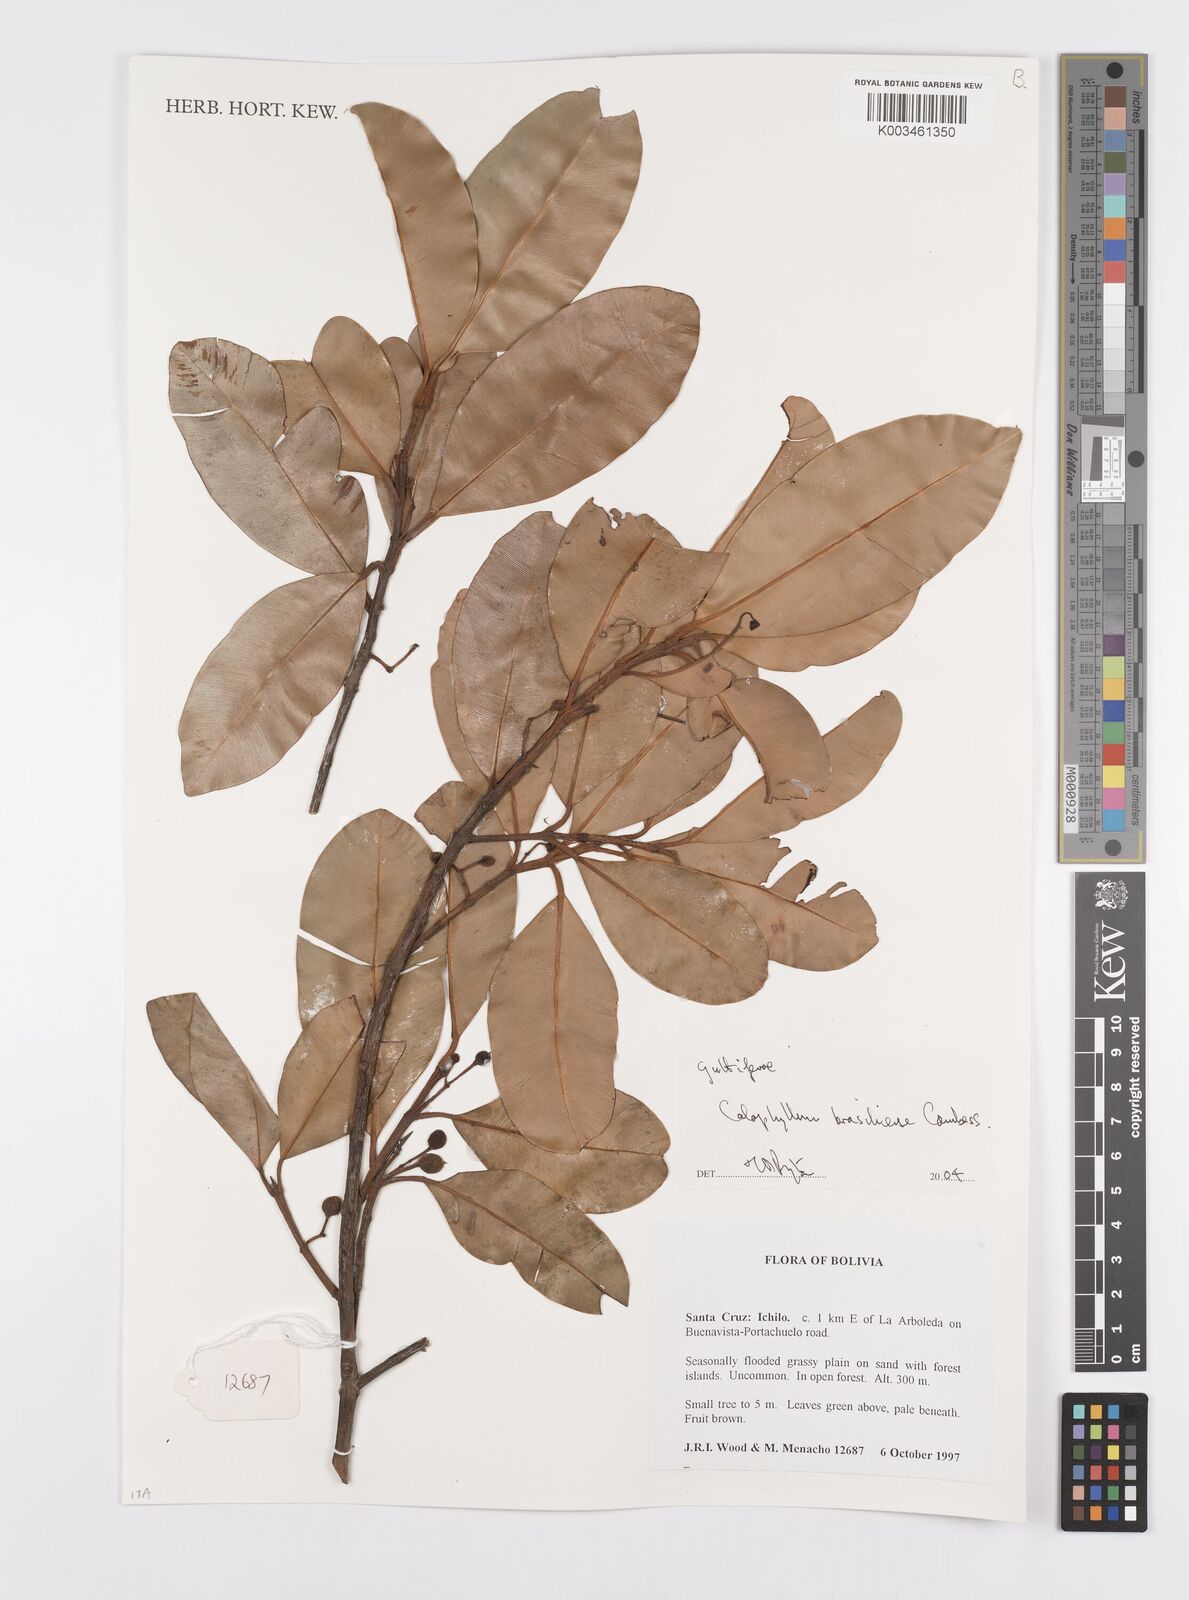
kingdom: Plantae
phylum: Tracheophyta
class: Magnoliopsida
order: Malpighiales
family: Calophyllaceae
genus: Calophyllum
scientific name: Calophyllum brasiliense
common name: Santa maria
